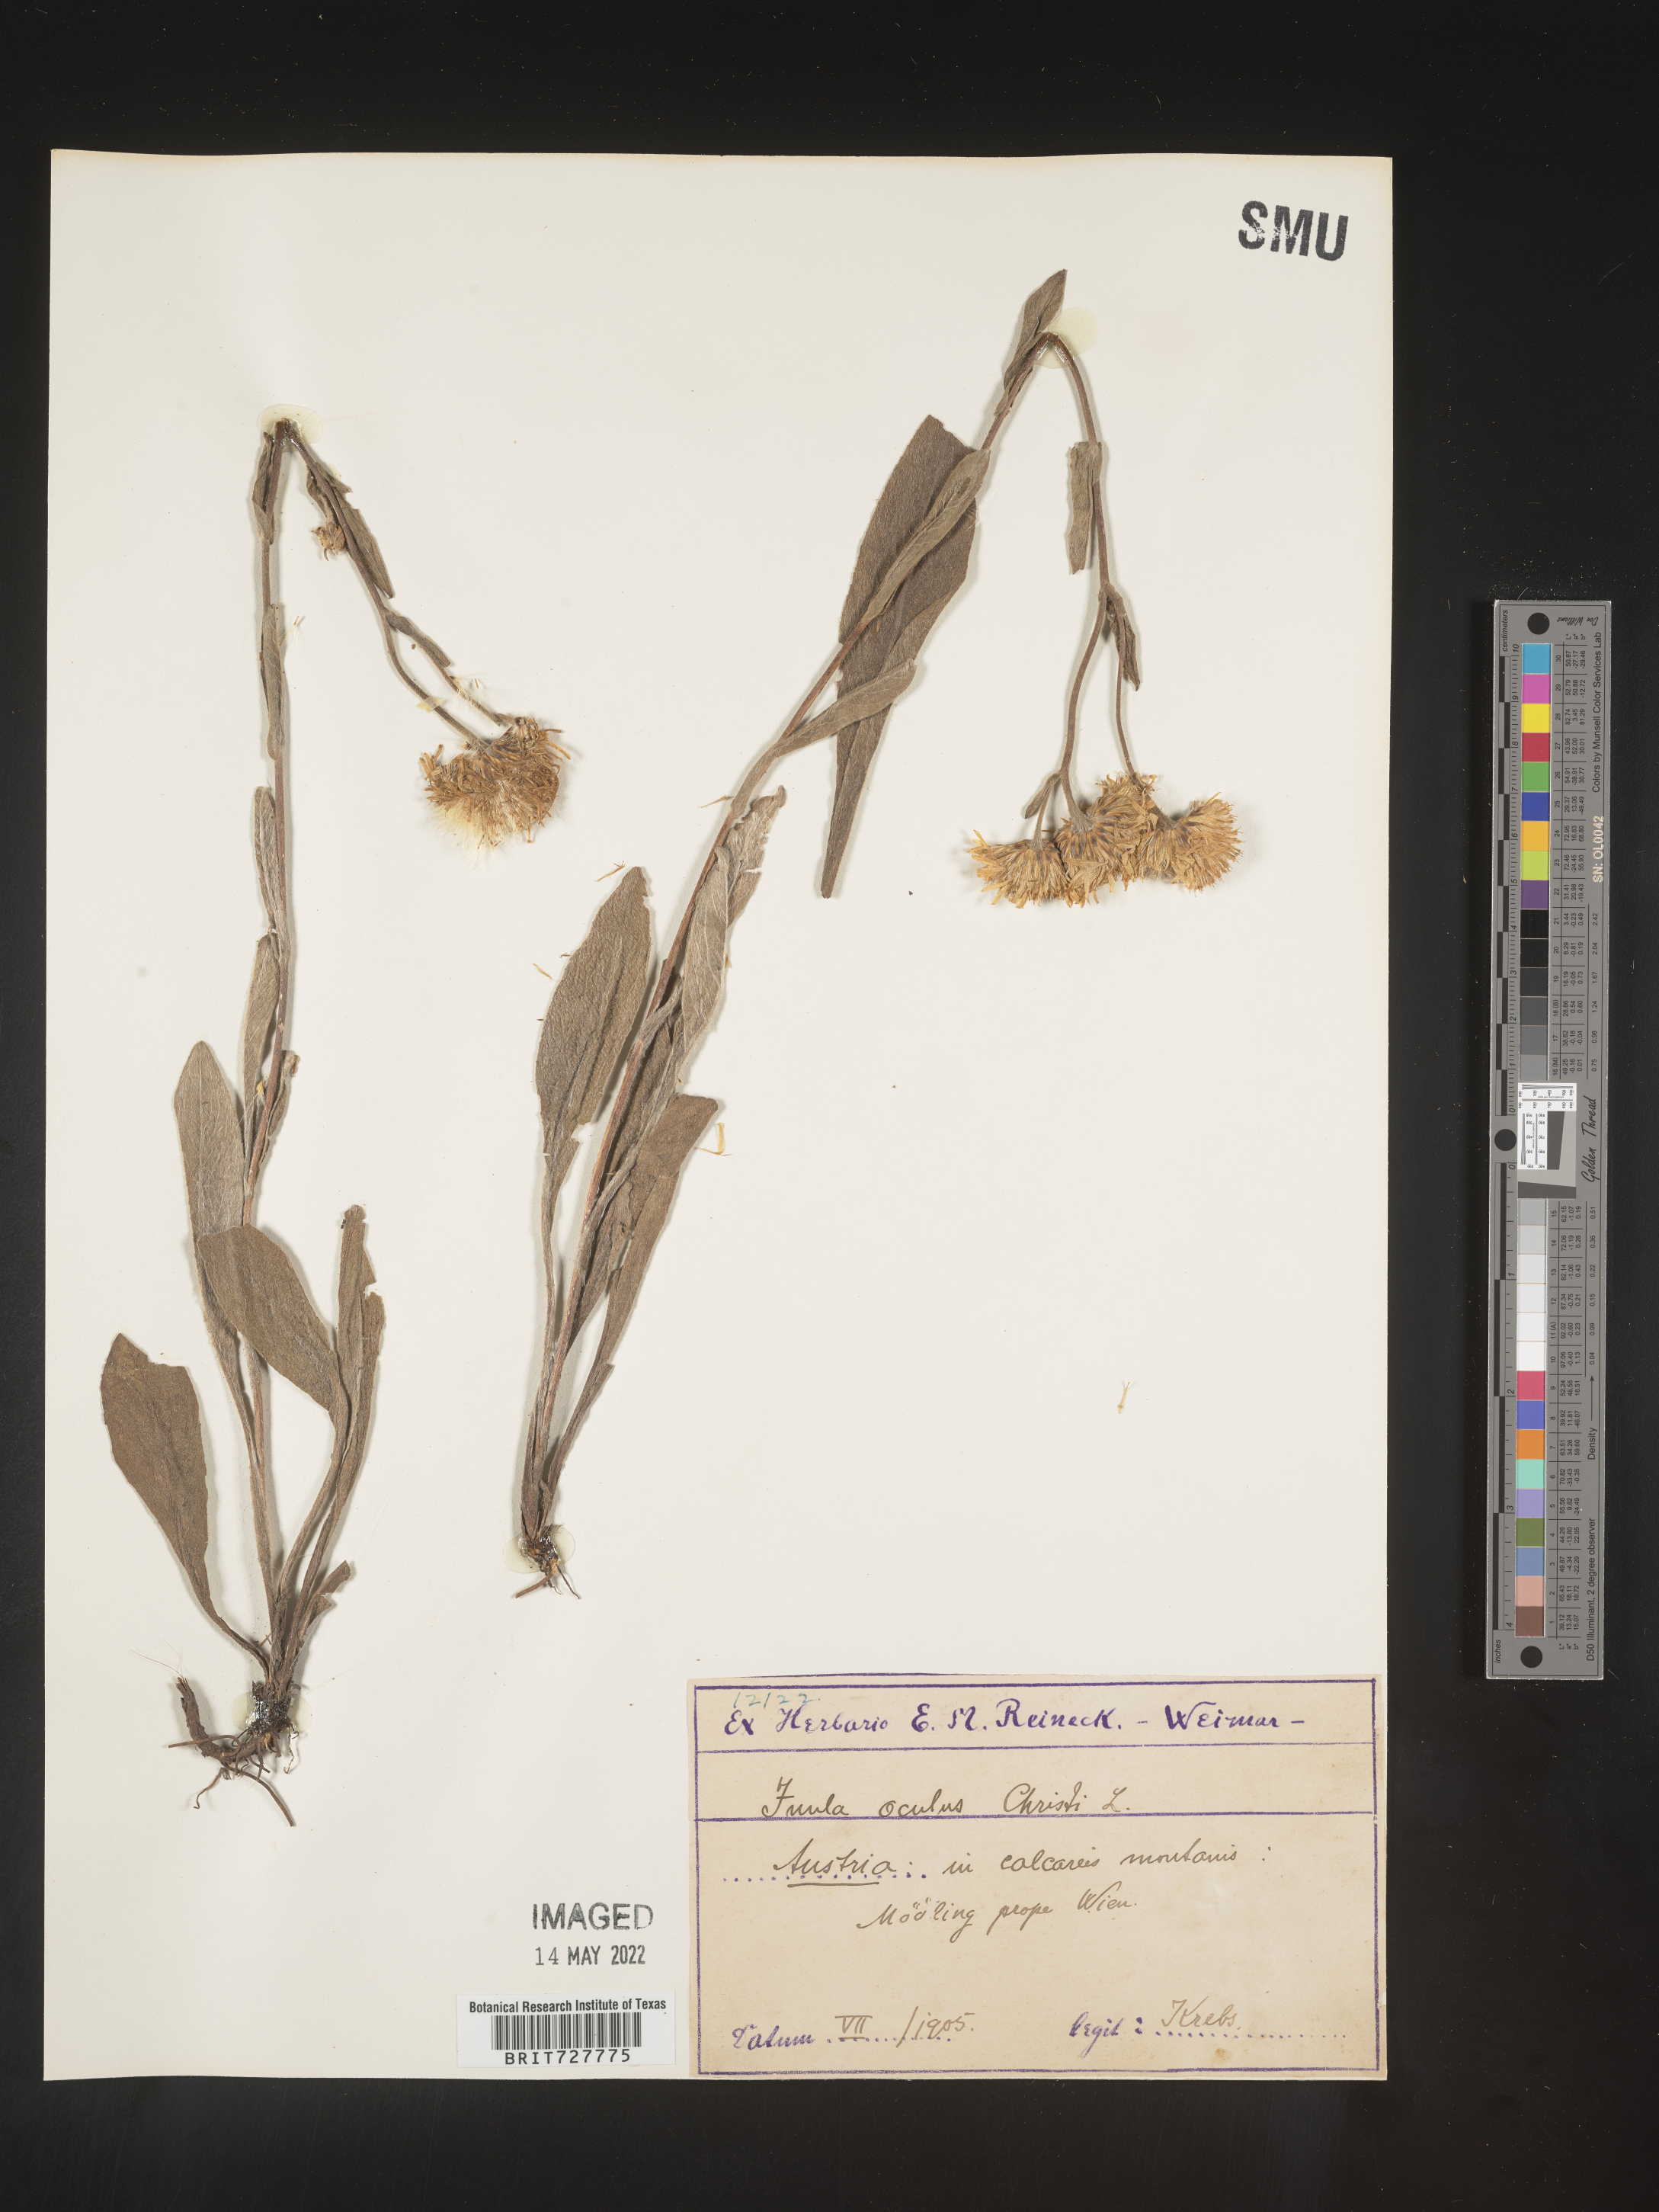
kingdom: Plantae
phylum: Tracheophyta
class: Magnoliopsida
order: Asterales
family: Asteraceae
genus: Inula
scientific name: Inula
